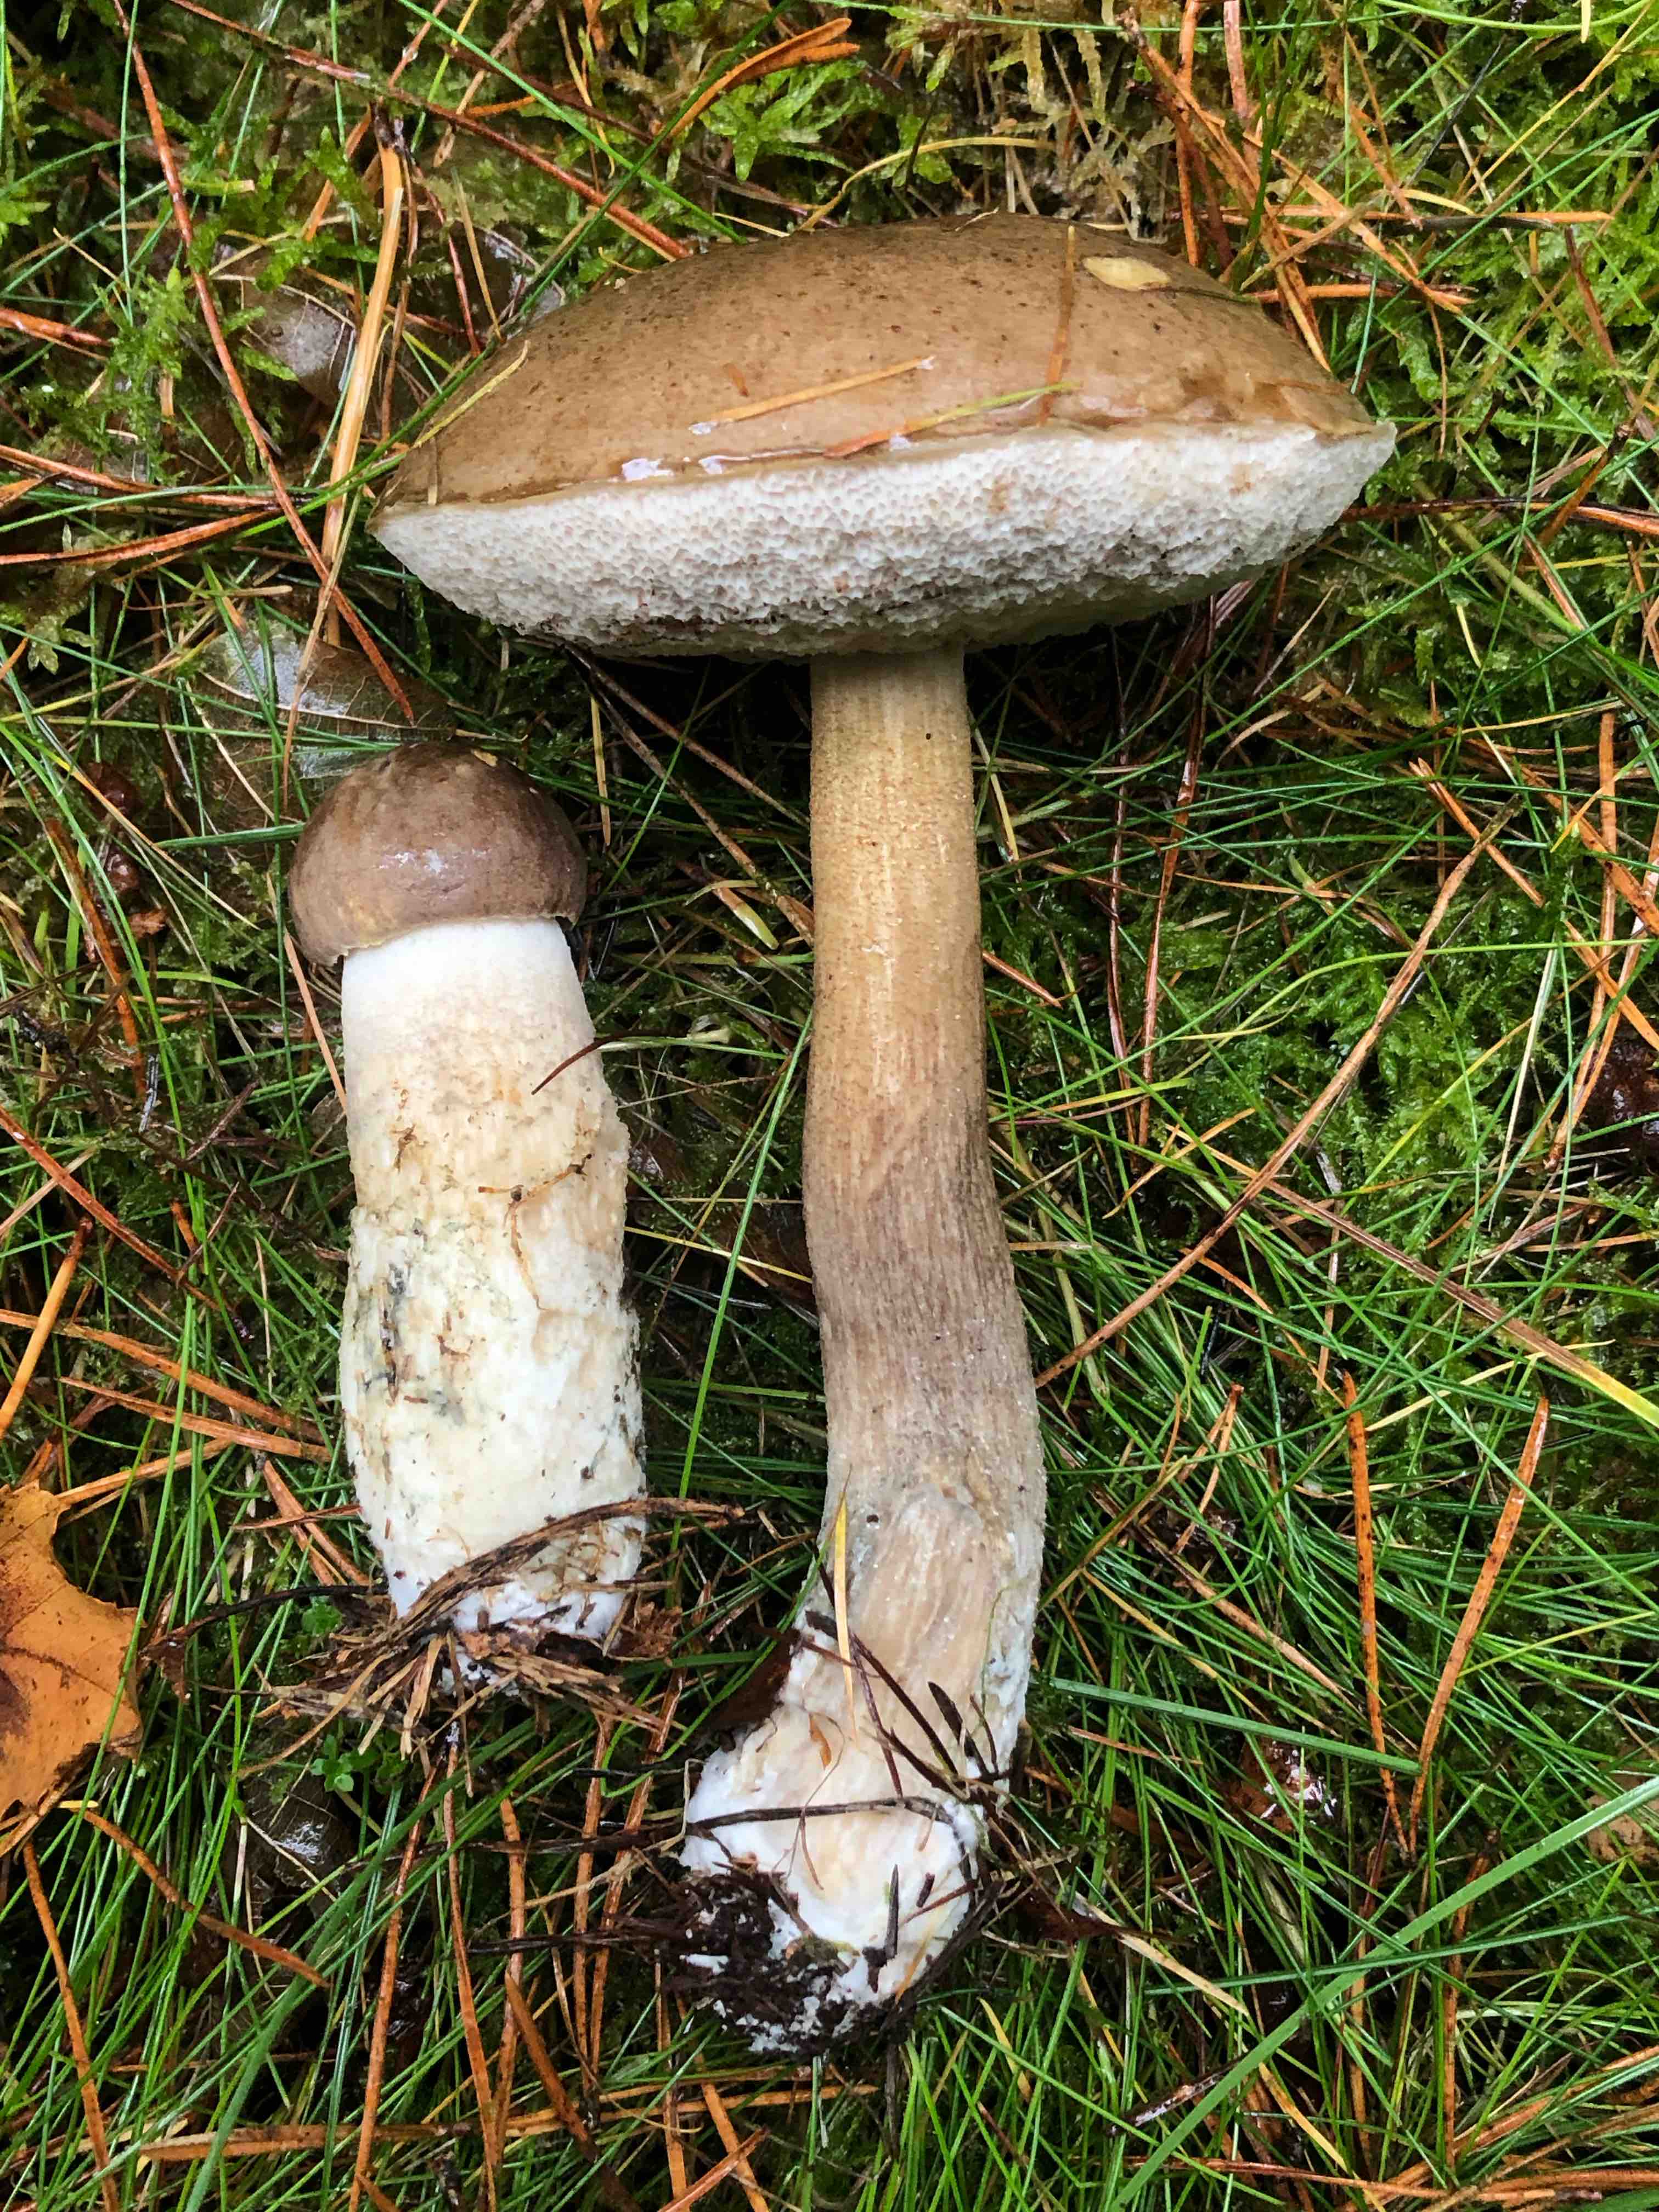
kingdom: Fungi
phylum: Basidiomycota
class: Agaricomycetes
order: Boletales
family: Boletaceae
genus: Leccinum
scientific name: Leccinum cyaneobasileucum
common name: almindelig skælrørhat
